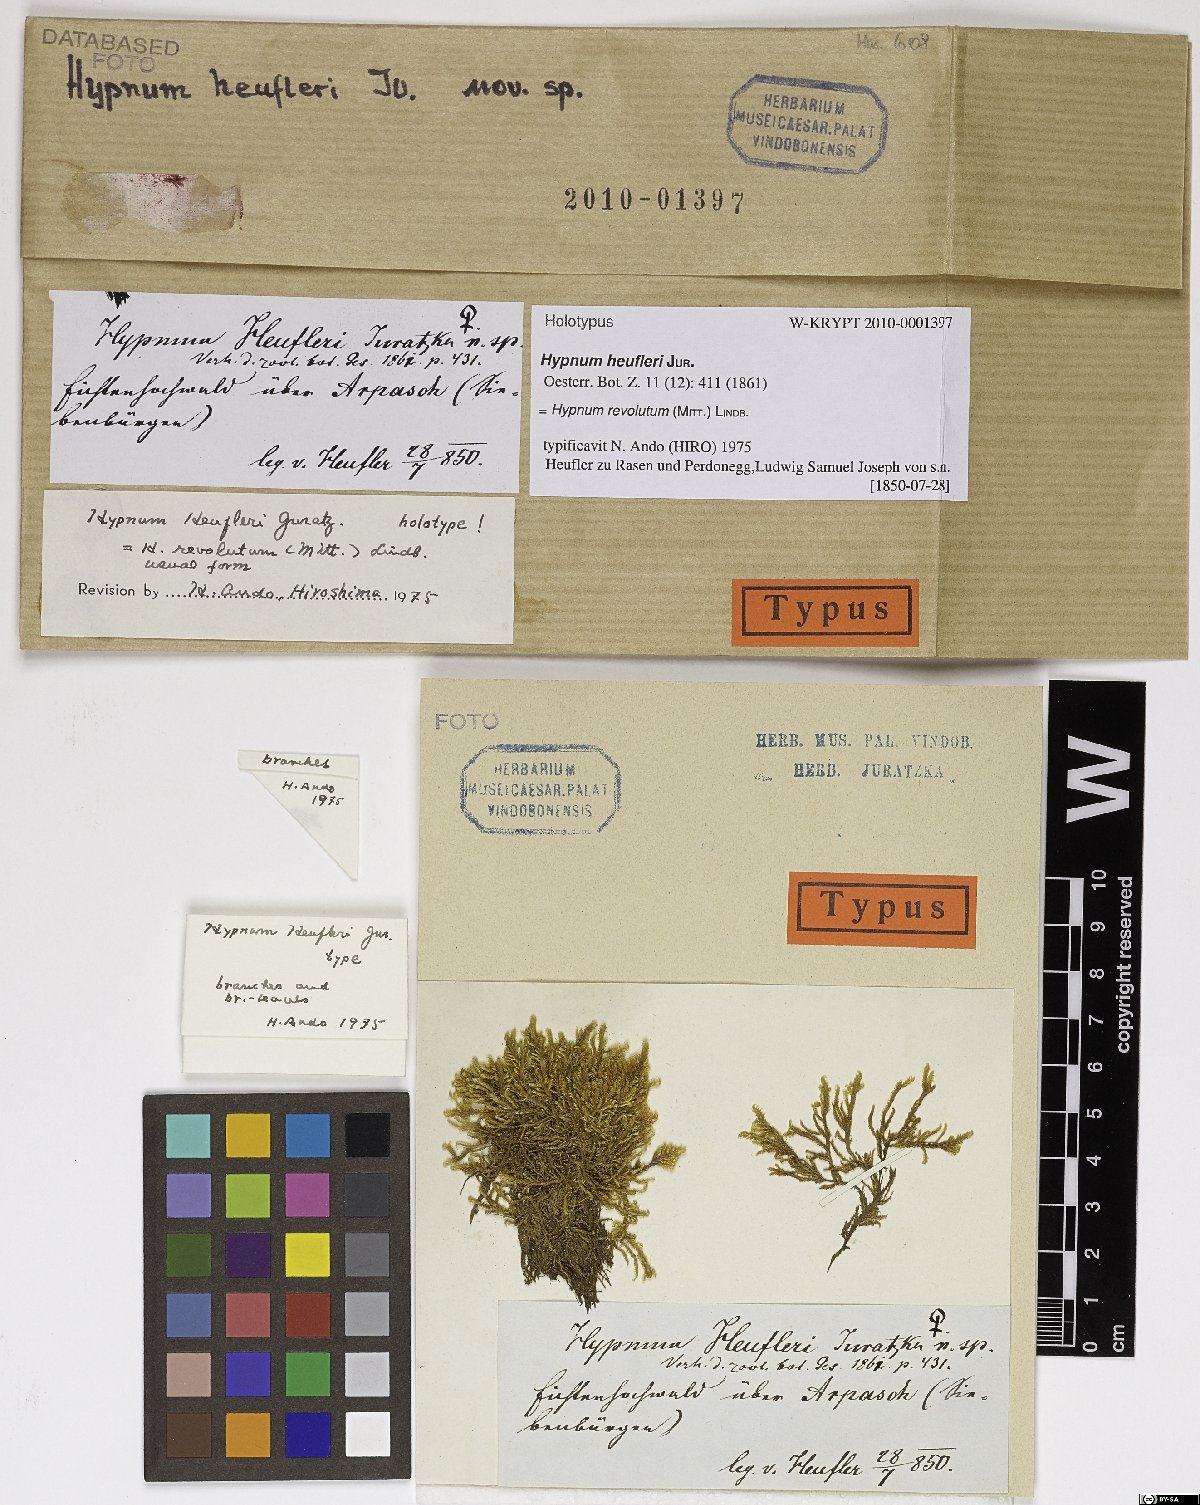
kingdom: Plantae
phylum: Bryophyta
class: Bryopsida
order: Hypnales
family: Pylaisiaceae
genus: Roaldia
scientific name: Roaldia revoluta
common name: Revolute plait-moss
